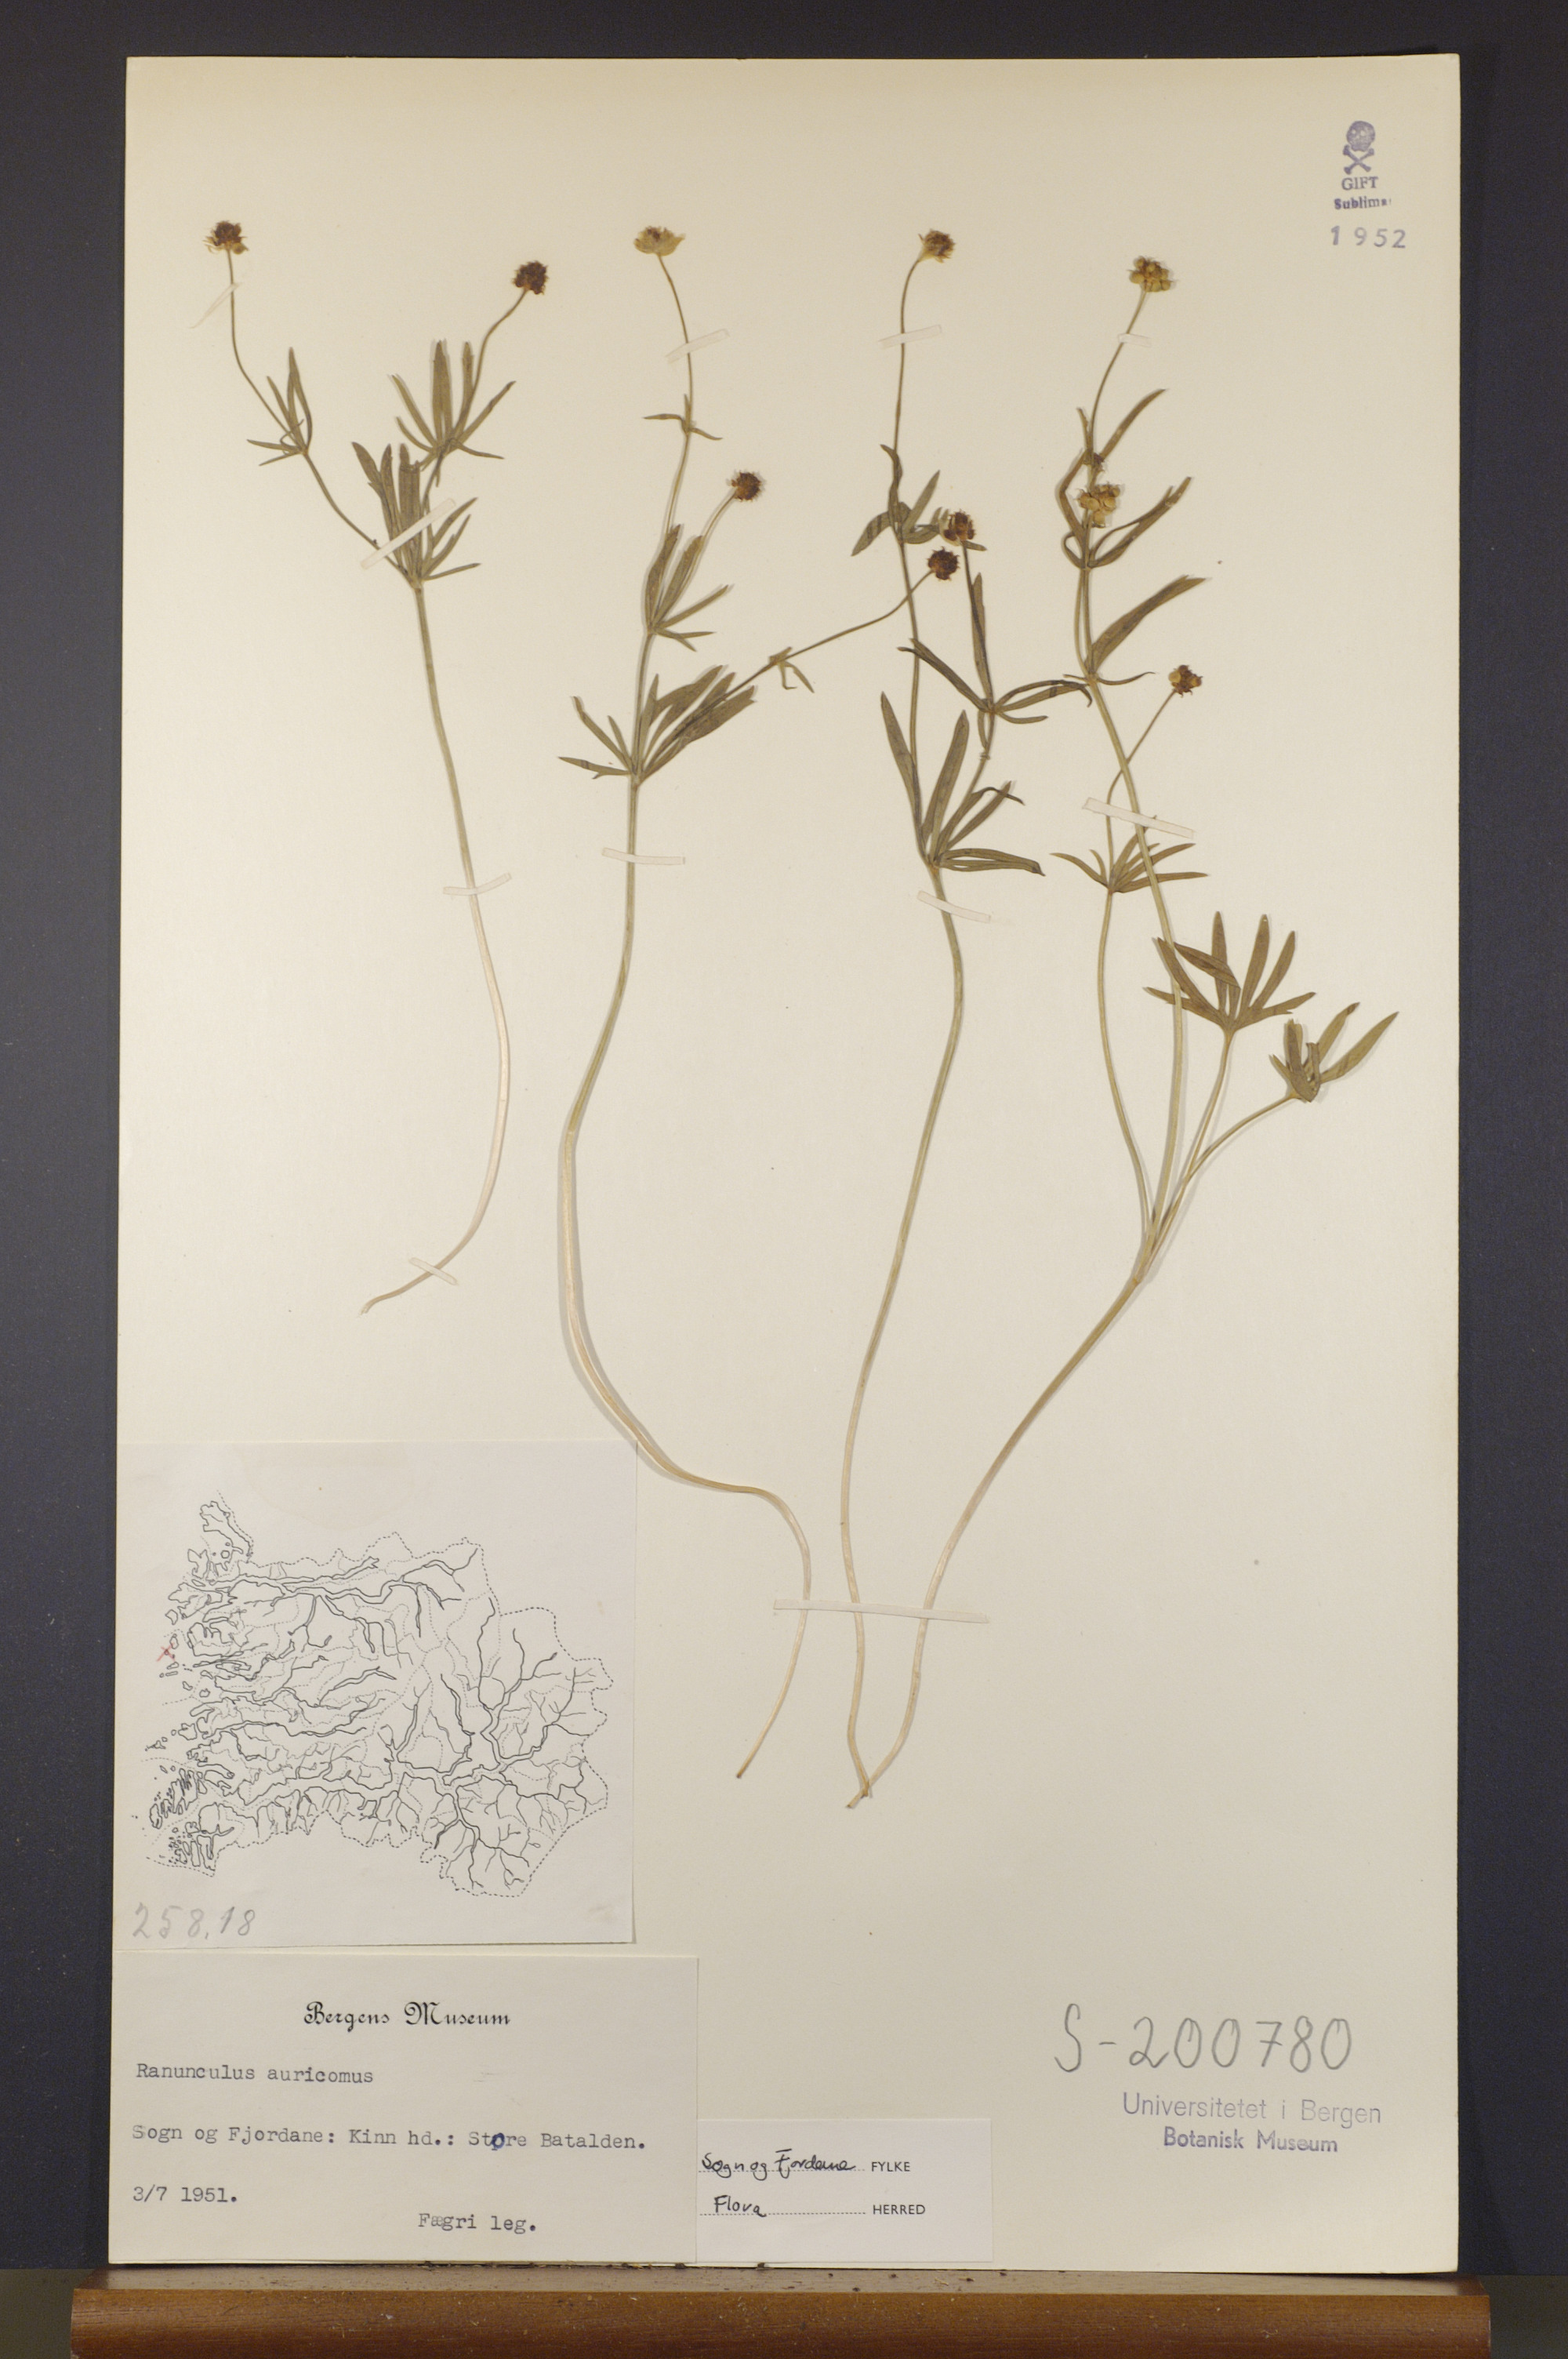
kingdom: Plantae
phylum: Tracheophyta
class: Magnoliopsida
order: Ranunculales
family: Ranunculaceae
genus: Ranunculus
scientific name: Ranunculus auricomus
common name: Goldilocks buttercup
